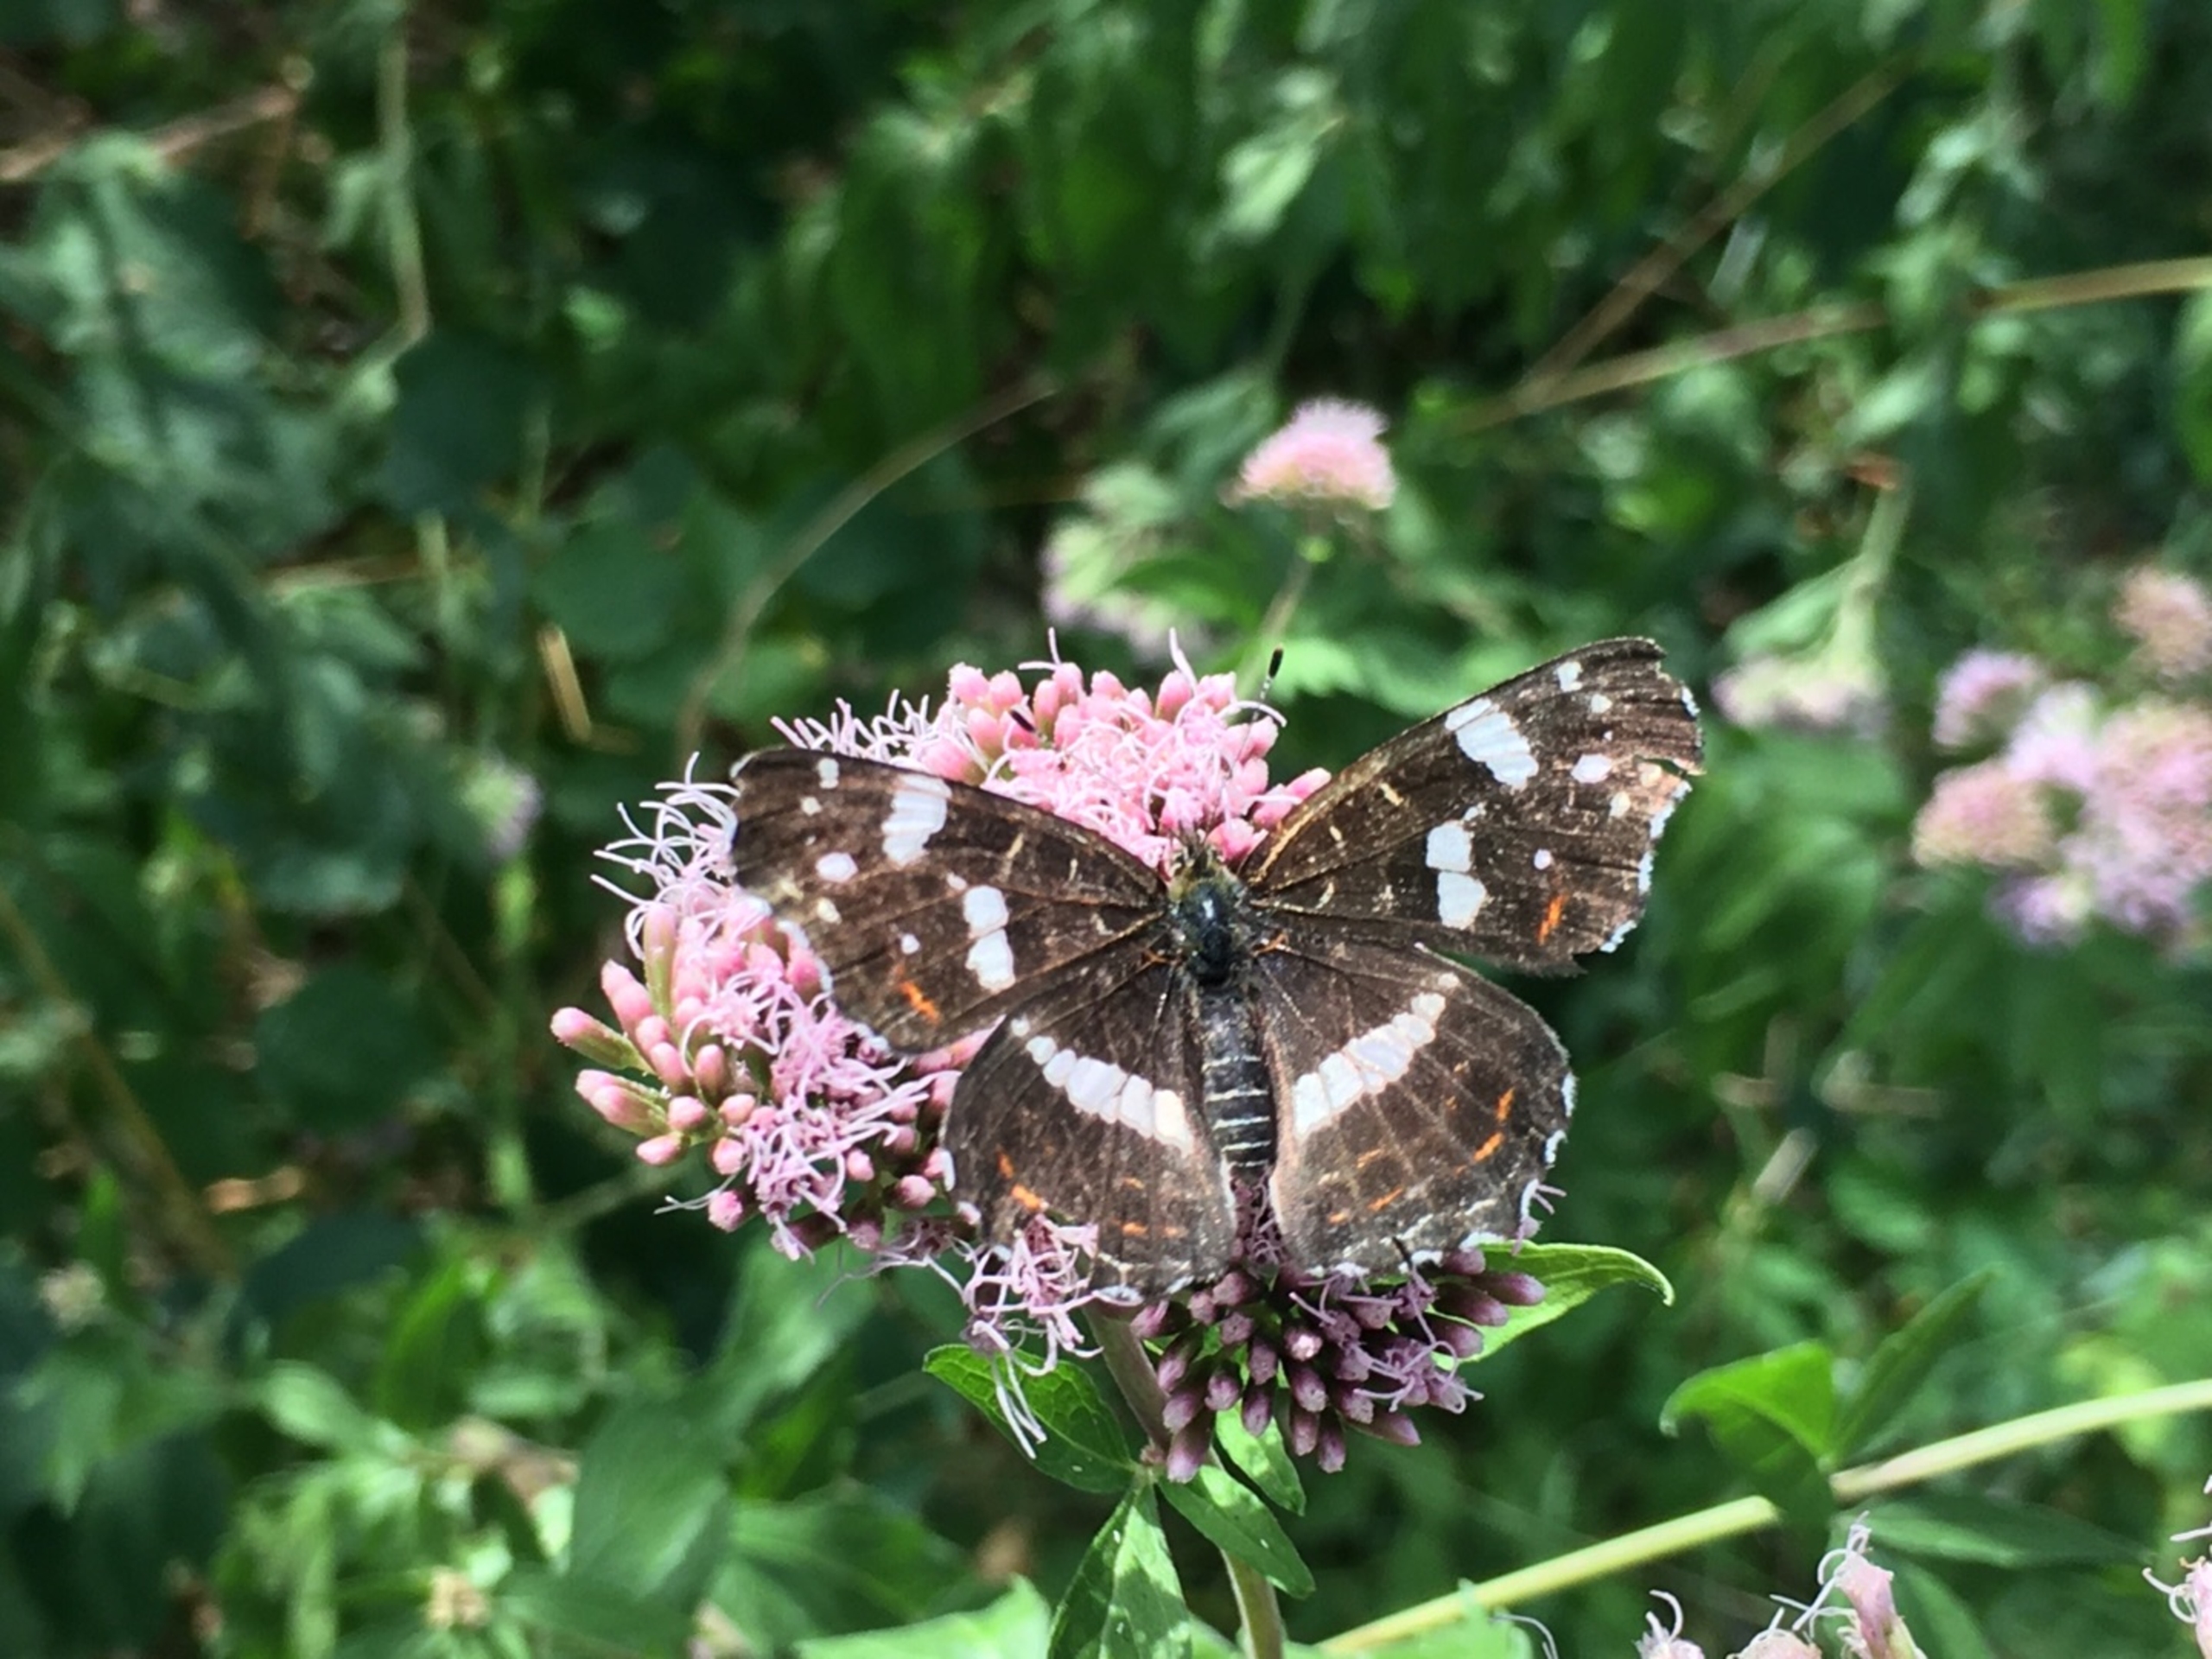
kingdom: Animalia
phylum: Arthropoda
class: Insecta
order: Lepidoptera
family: Nymphalidae
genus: Araschnia
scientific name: Araschnia levana
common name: Nældesommerfugl
